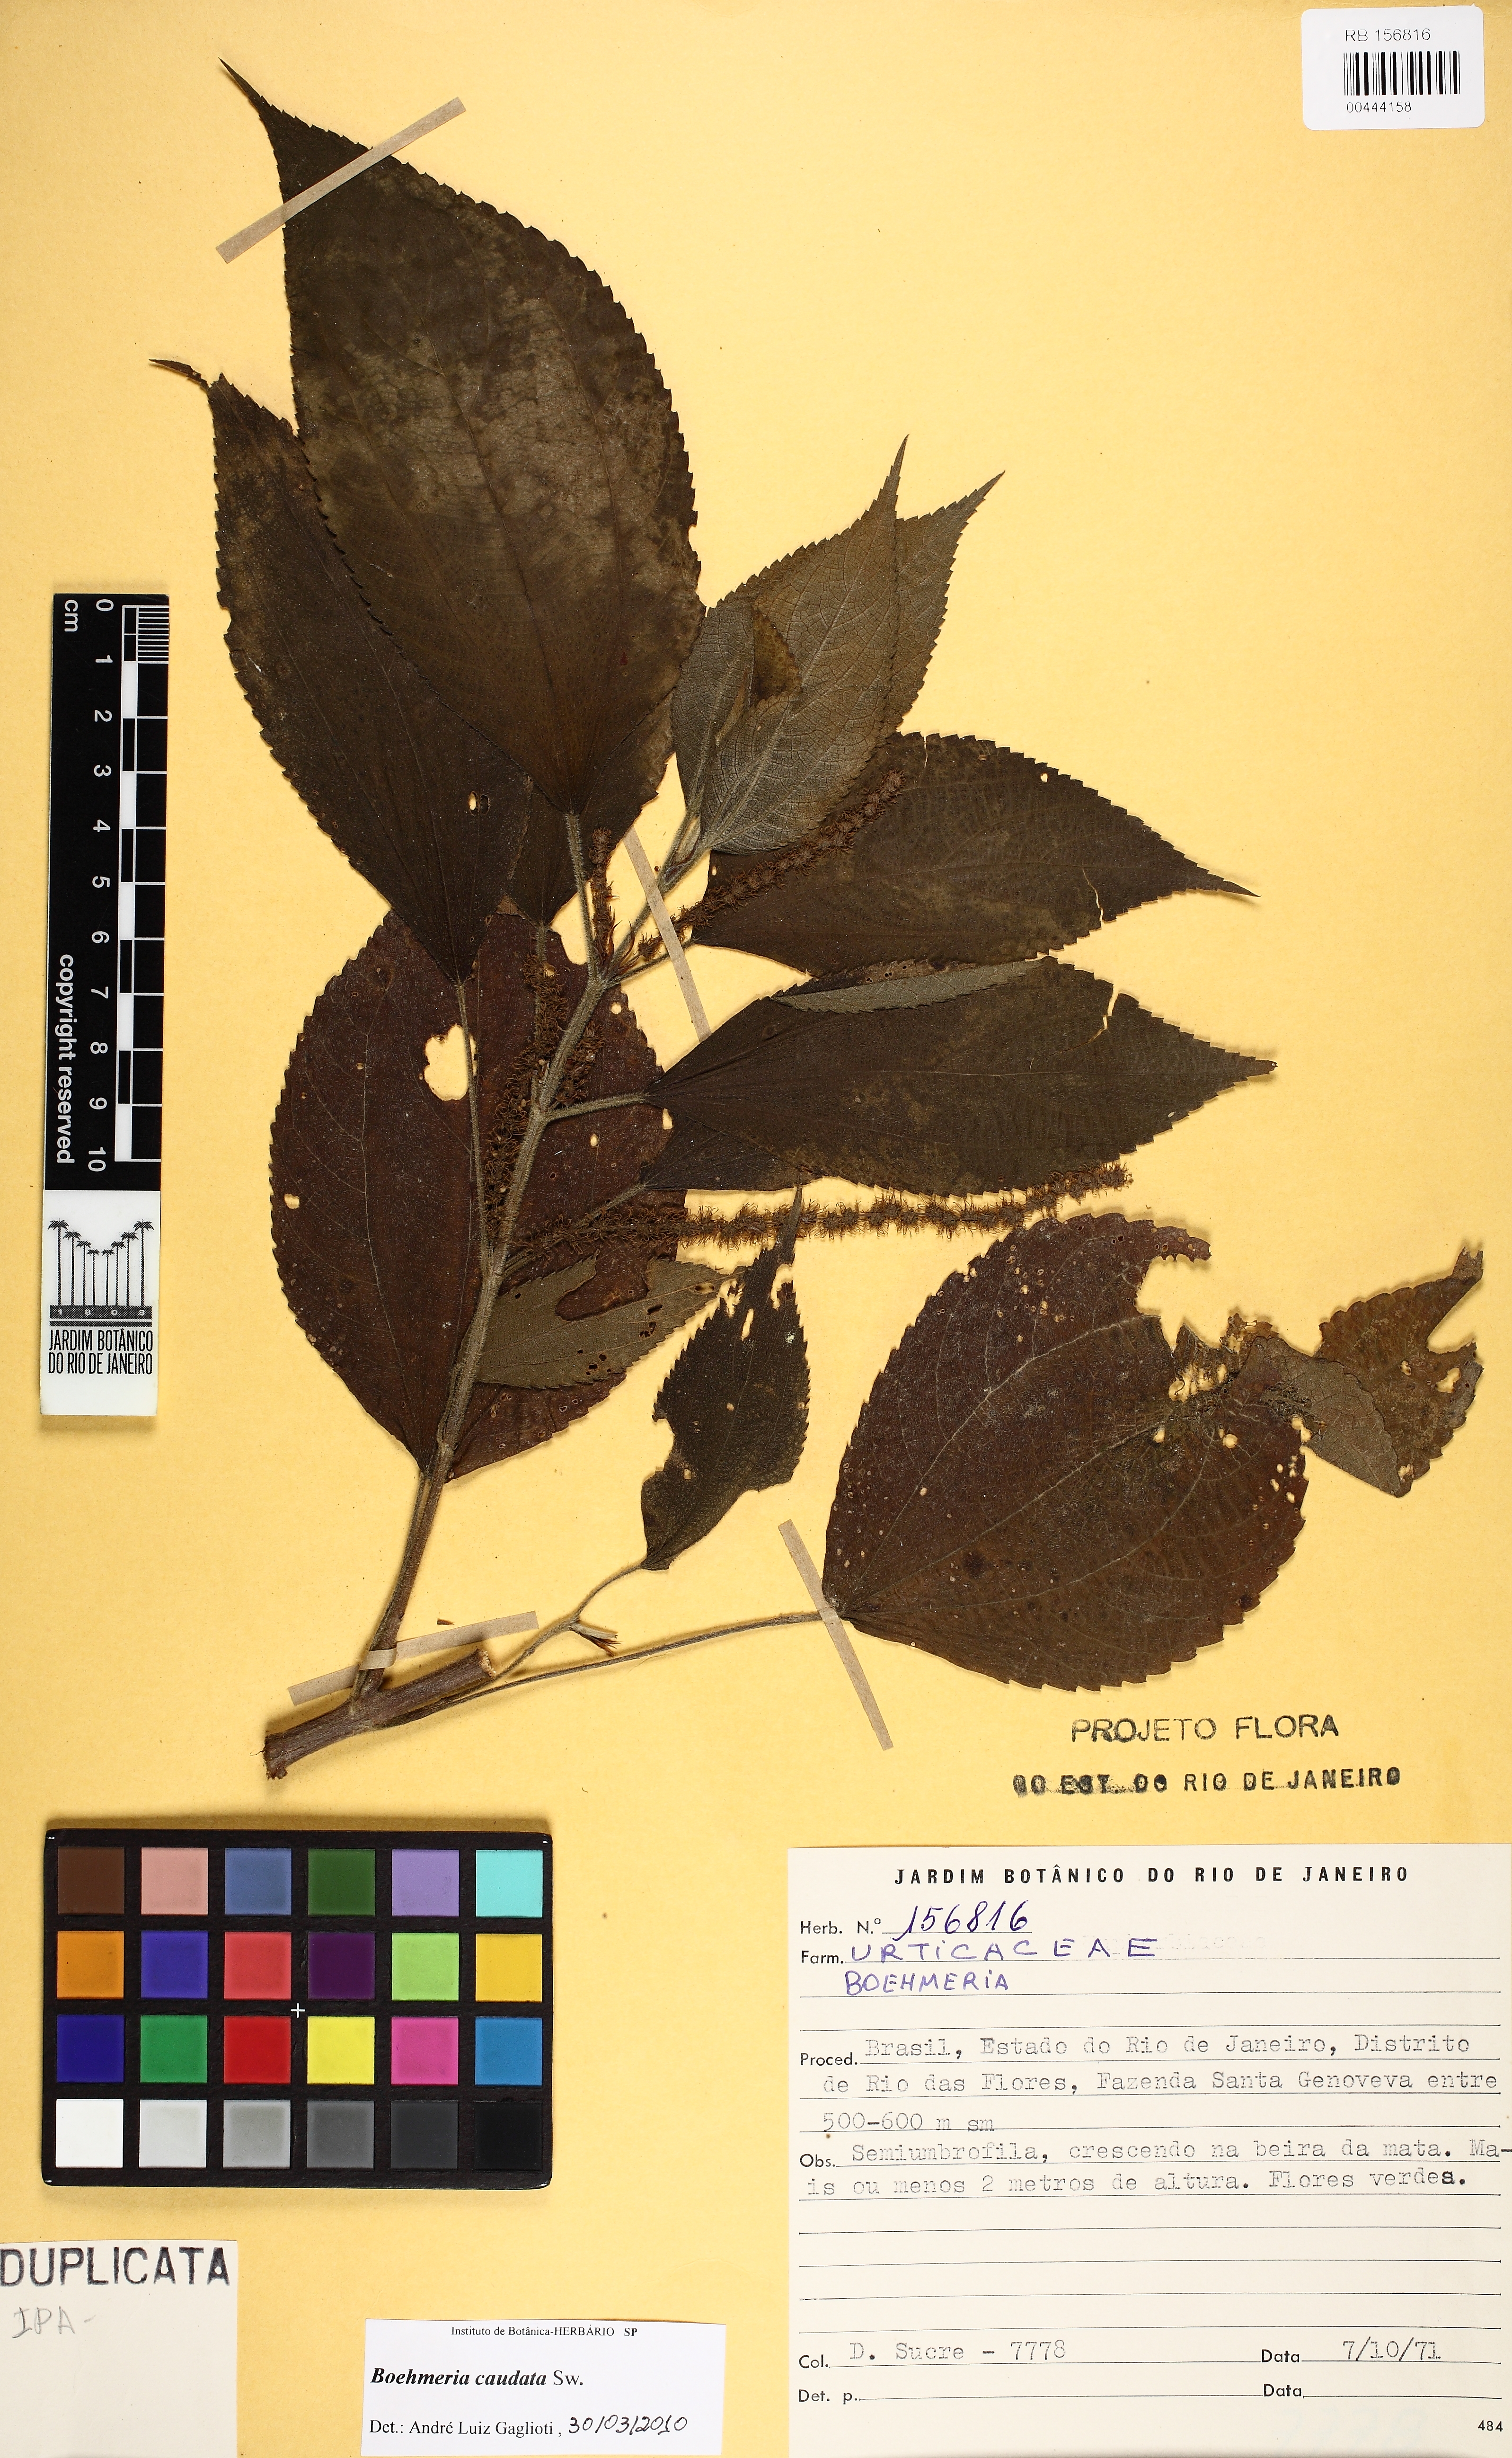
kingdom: Plantae
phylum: Tracheophyta
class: Magnoliopsida
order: Rosales
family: Urticaceae
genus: Boehmeria
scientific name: Boehmeria caudata
